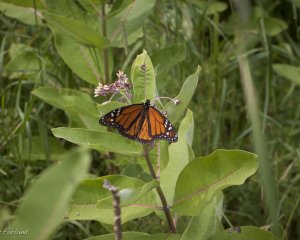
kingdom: Animalia
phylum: Arthropoda
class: Insecta
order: Lepidoptera
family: Nymphalidae
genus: Danaus
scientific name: Danaus plexippus
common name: Monarch
